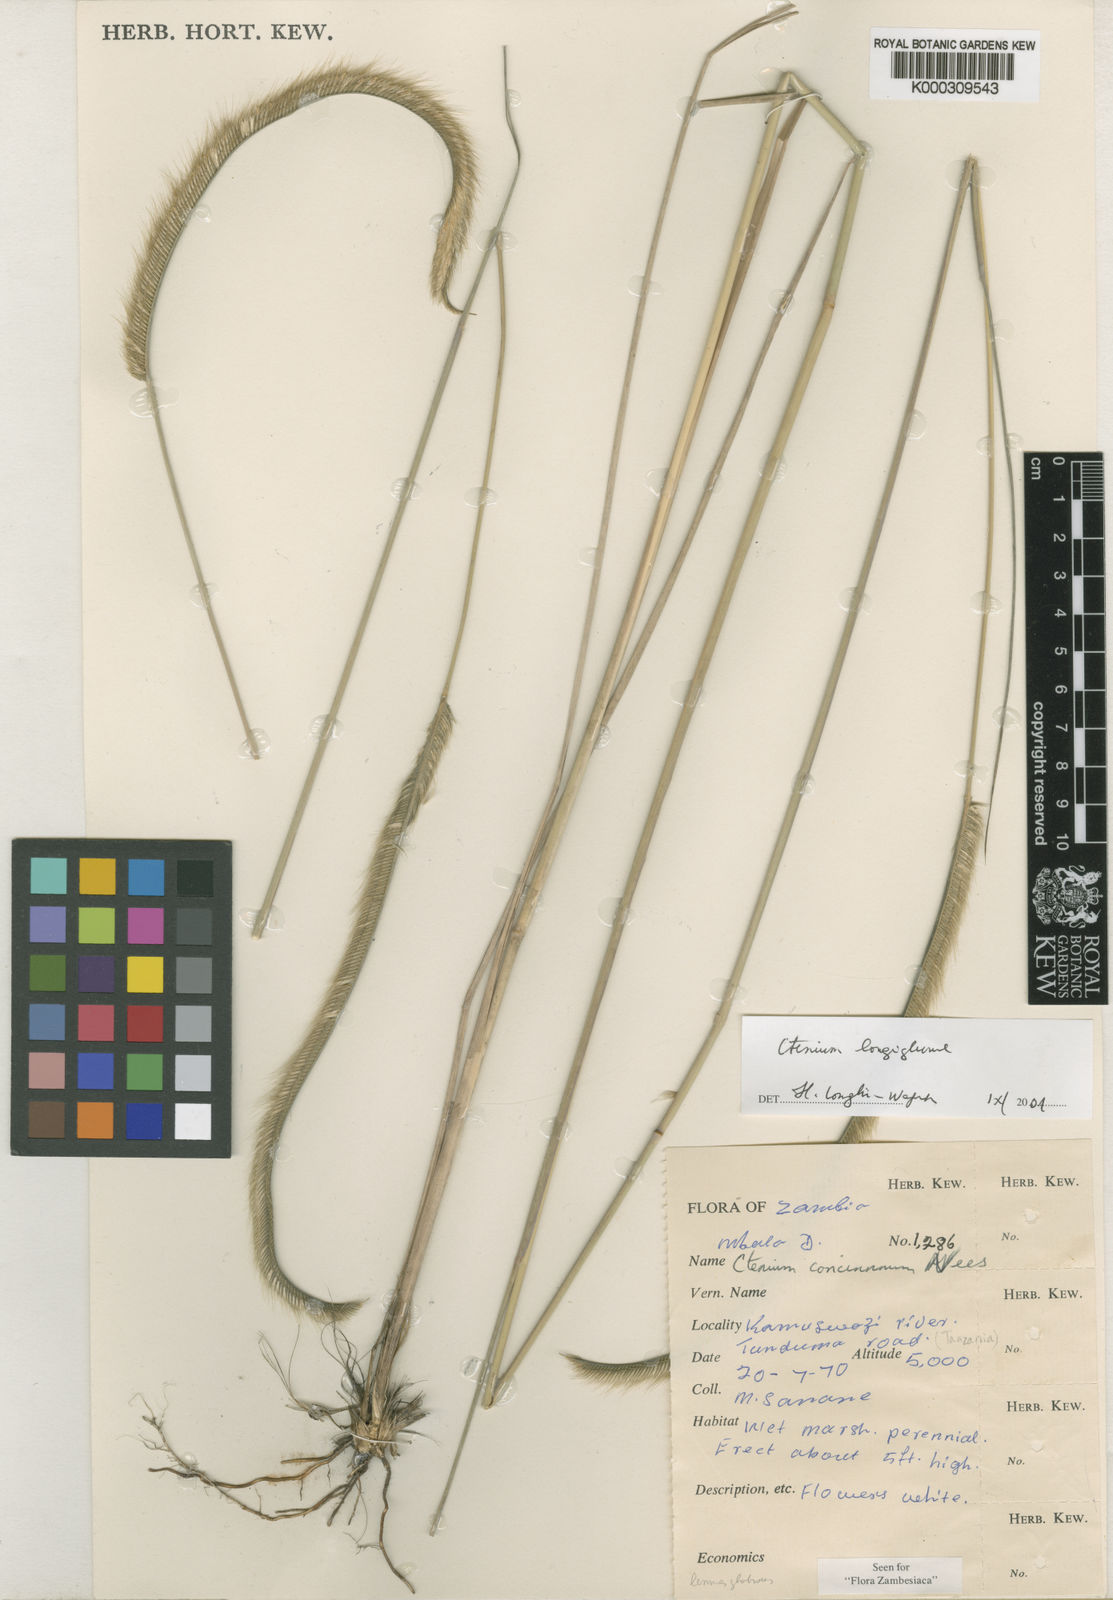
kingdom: Plantae
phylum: Tracheophyta
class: Liliopsida
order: Poales
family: Poaceae
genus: Ctenium
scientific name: Ctenium longiglume
